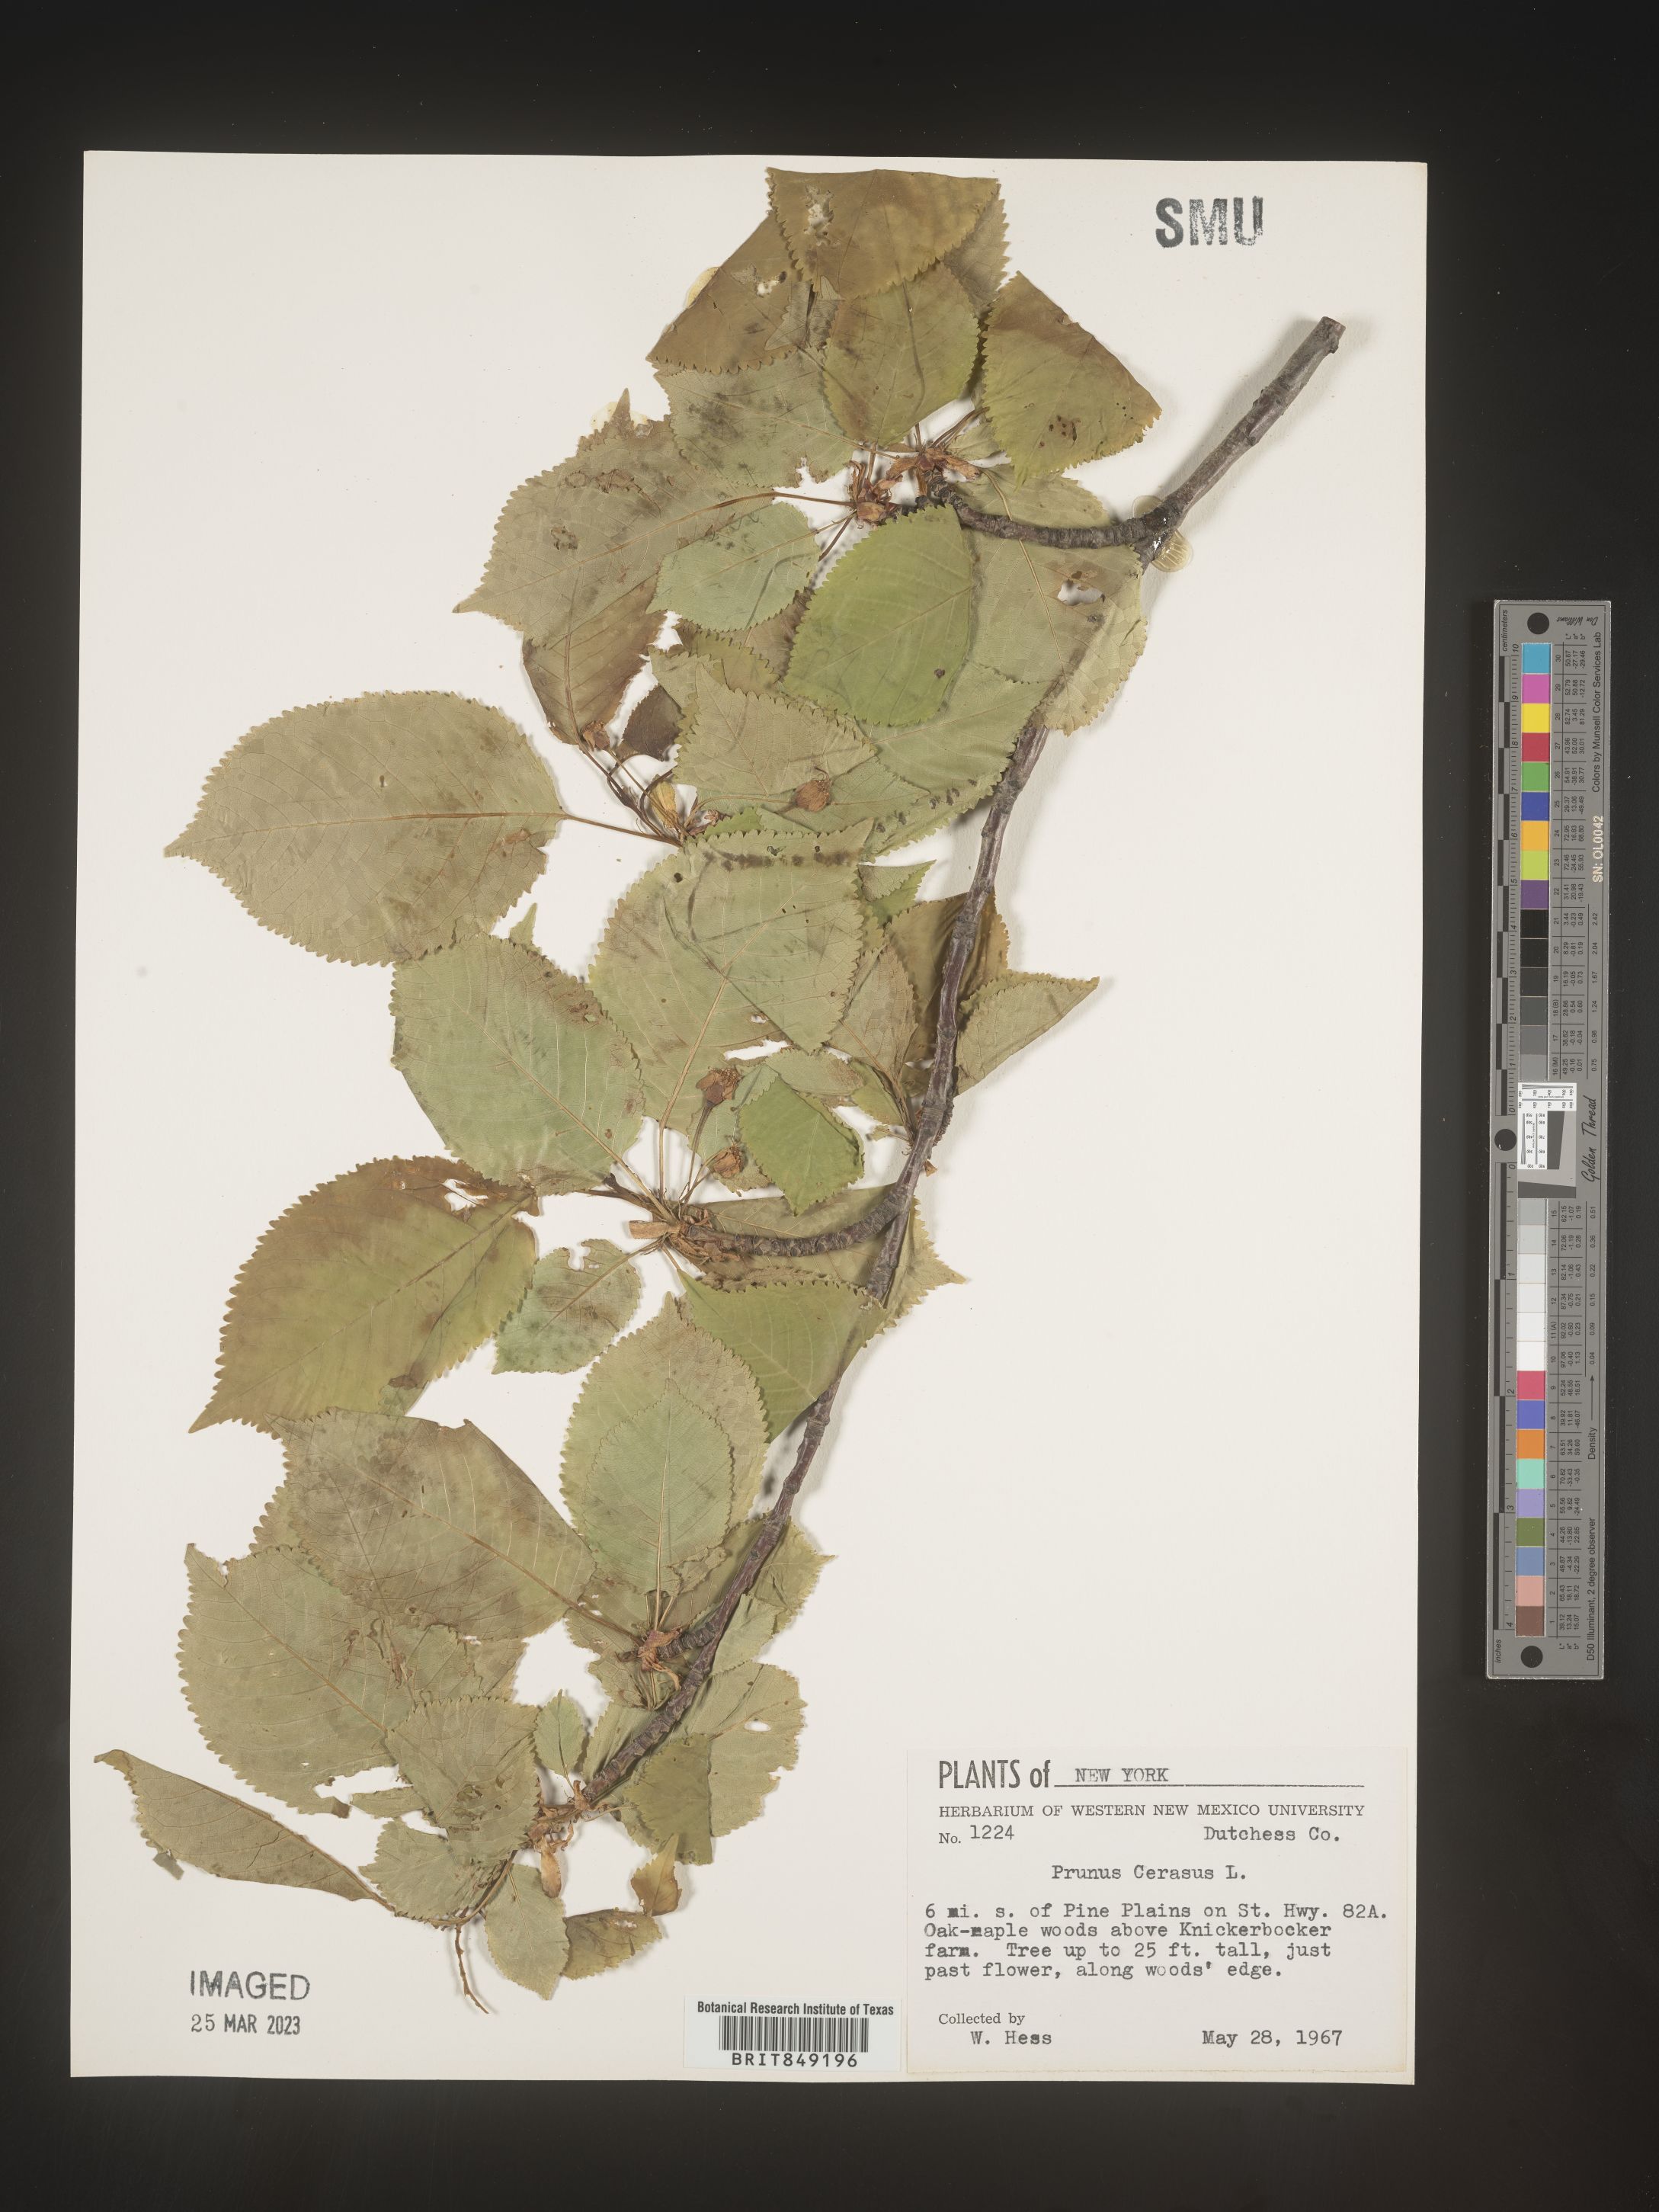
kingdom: Plantae
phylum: Tracheophyta
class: Magnoliopsida
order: Rosales
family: Rosaceae
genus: Prunus
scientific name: Prunus
